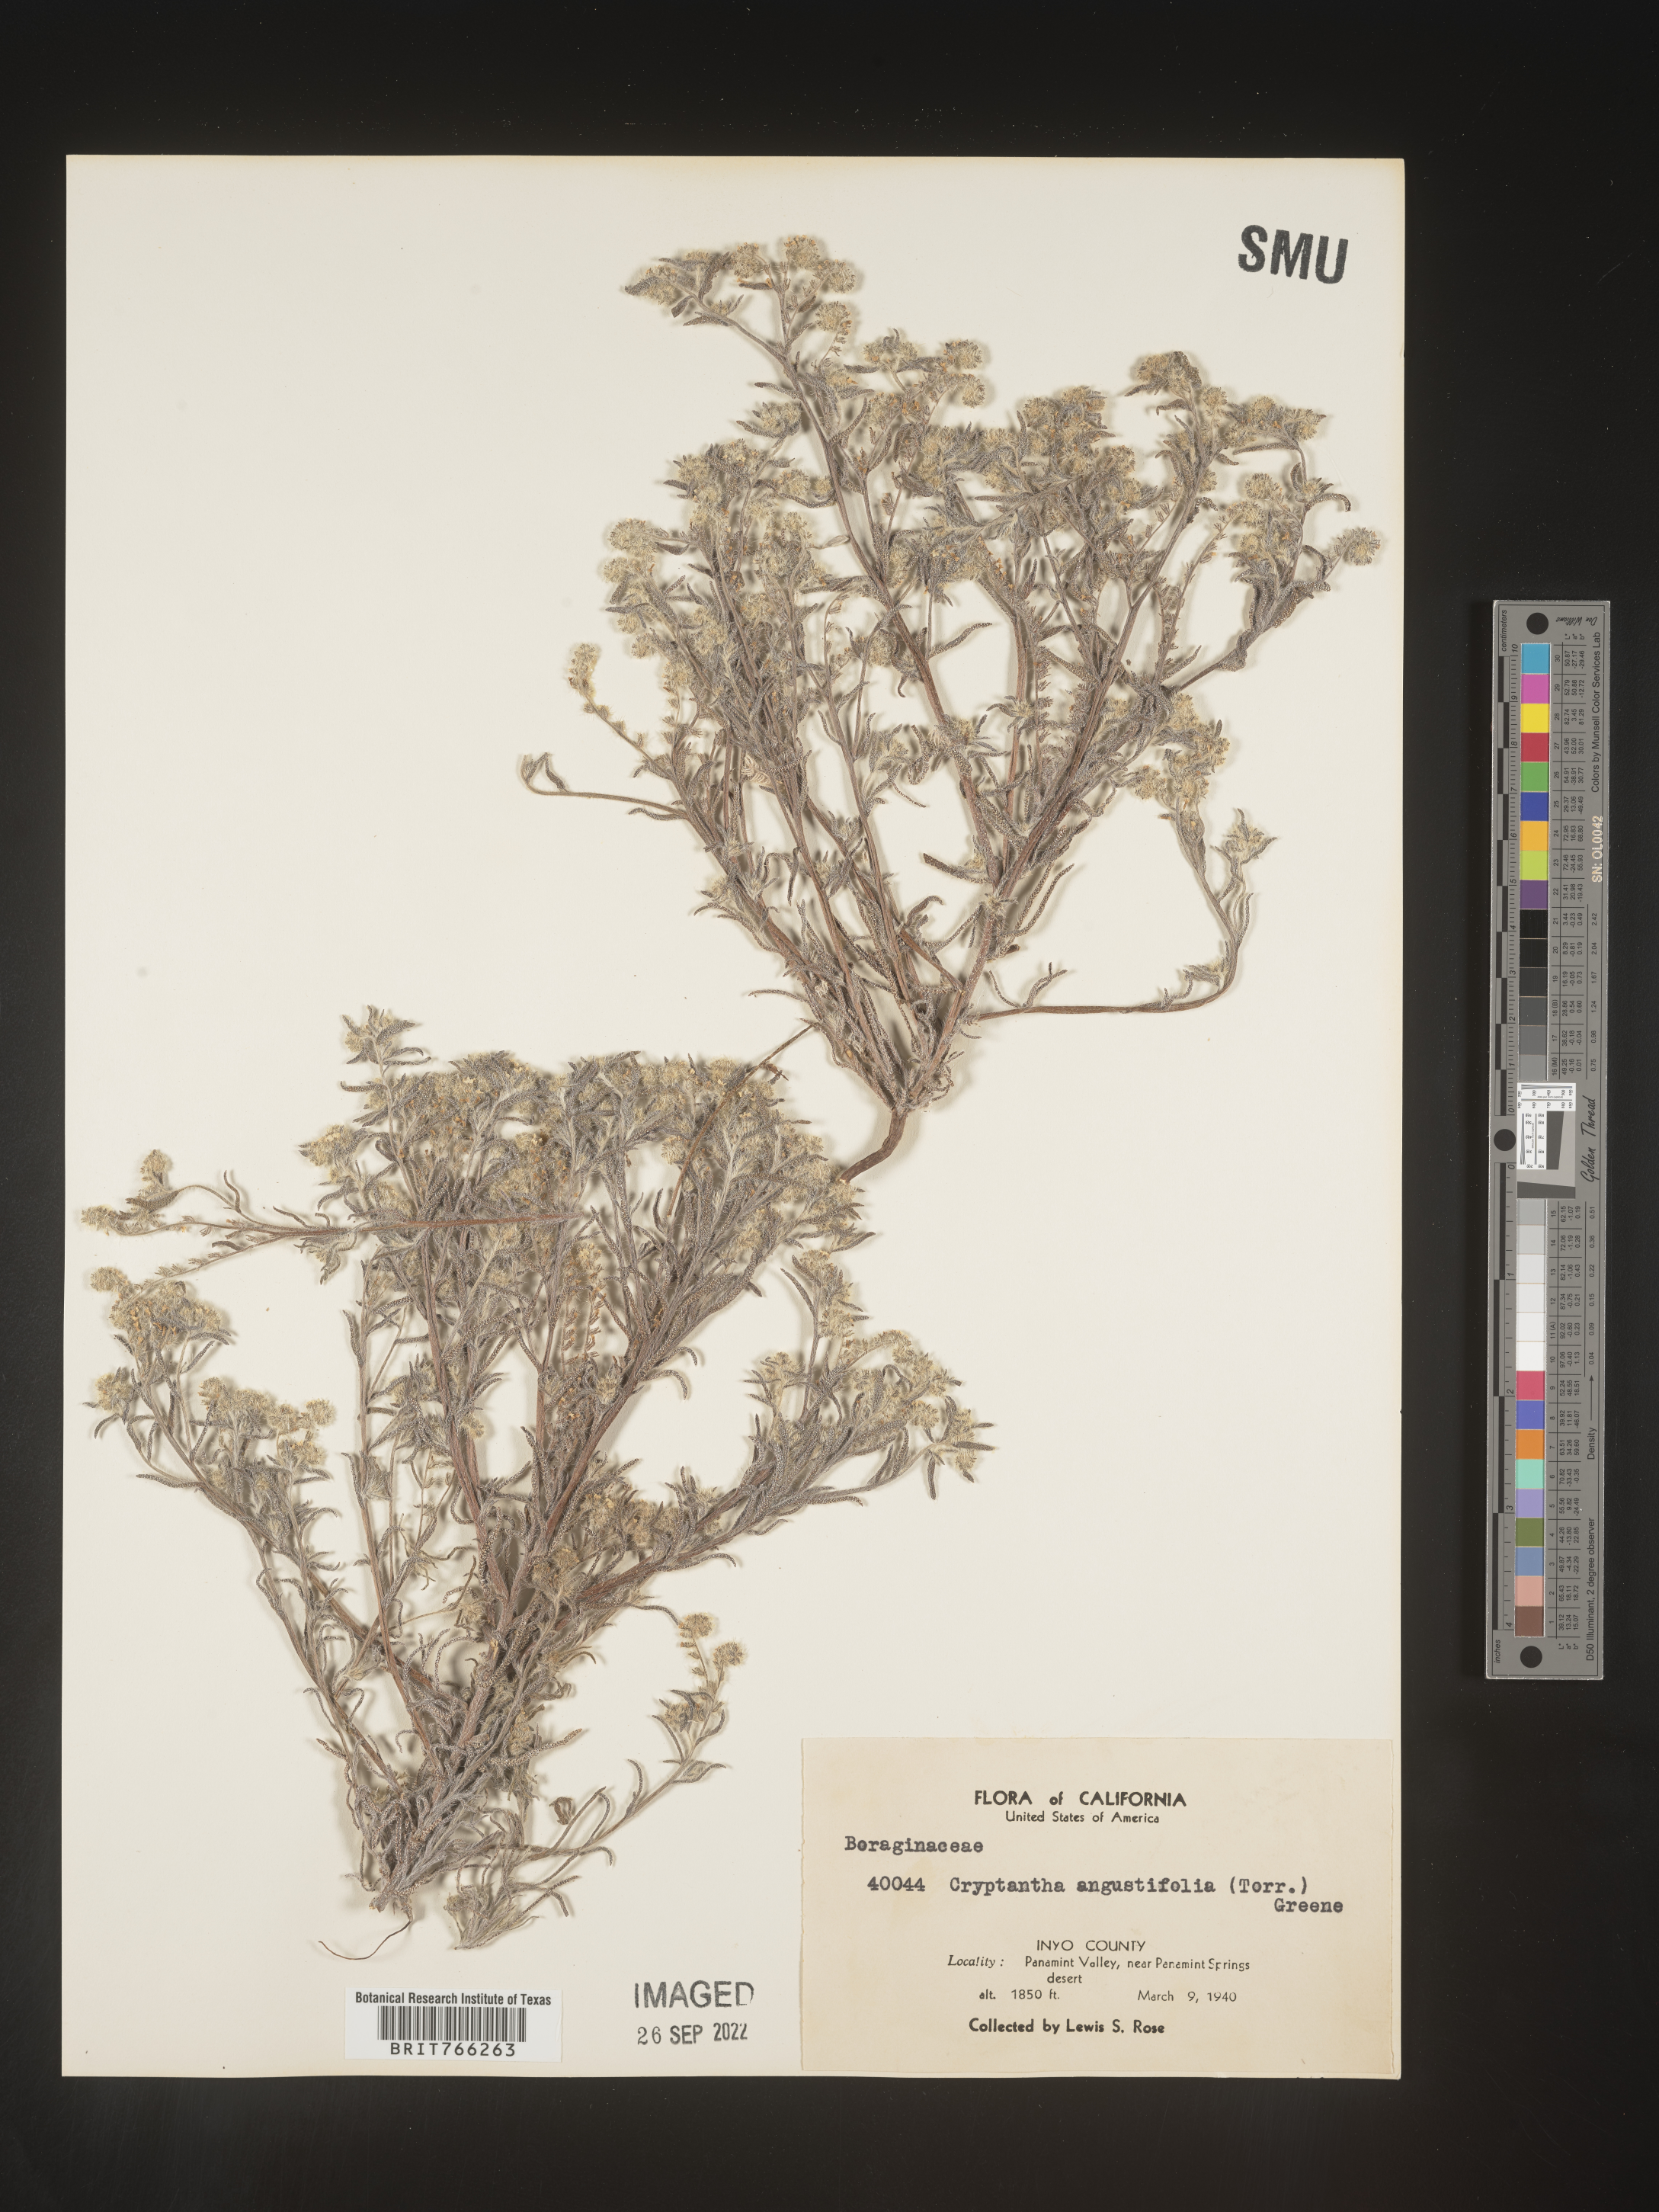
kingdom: Plantae
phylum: Tracheophyta
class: Magnoliopsida
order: Boraginales
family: Boraginaceae
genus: Cryptantha
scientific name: Cryptantha
